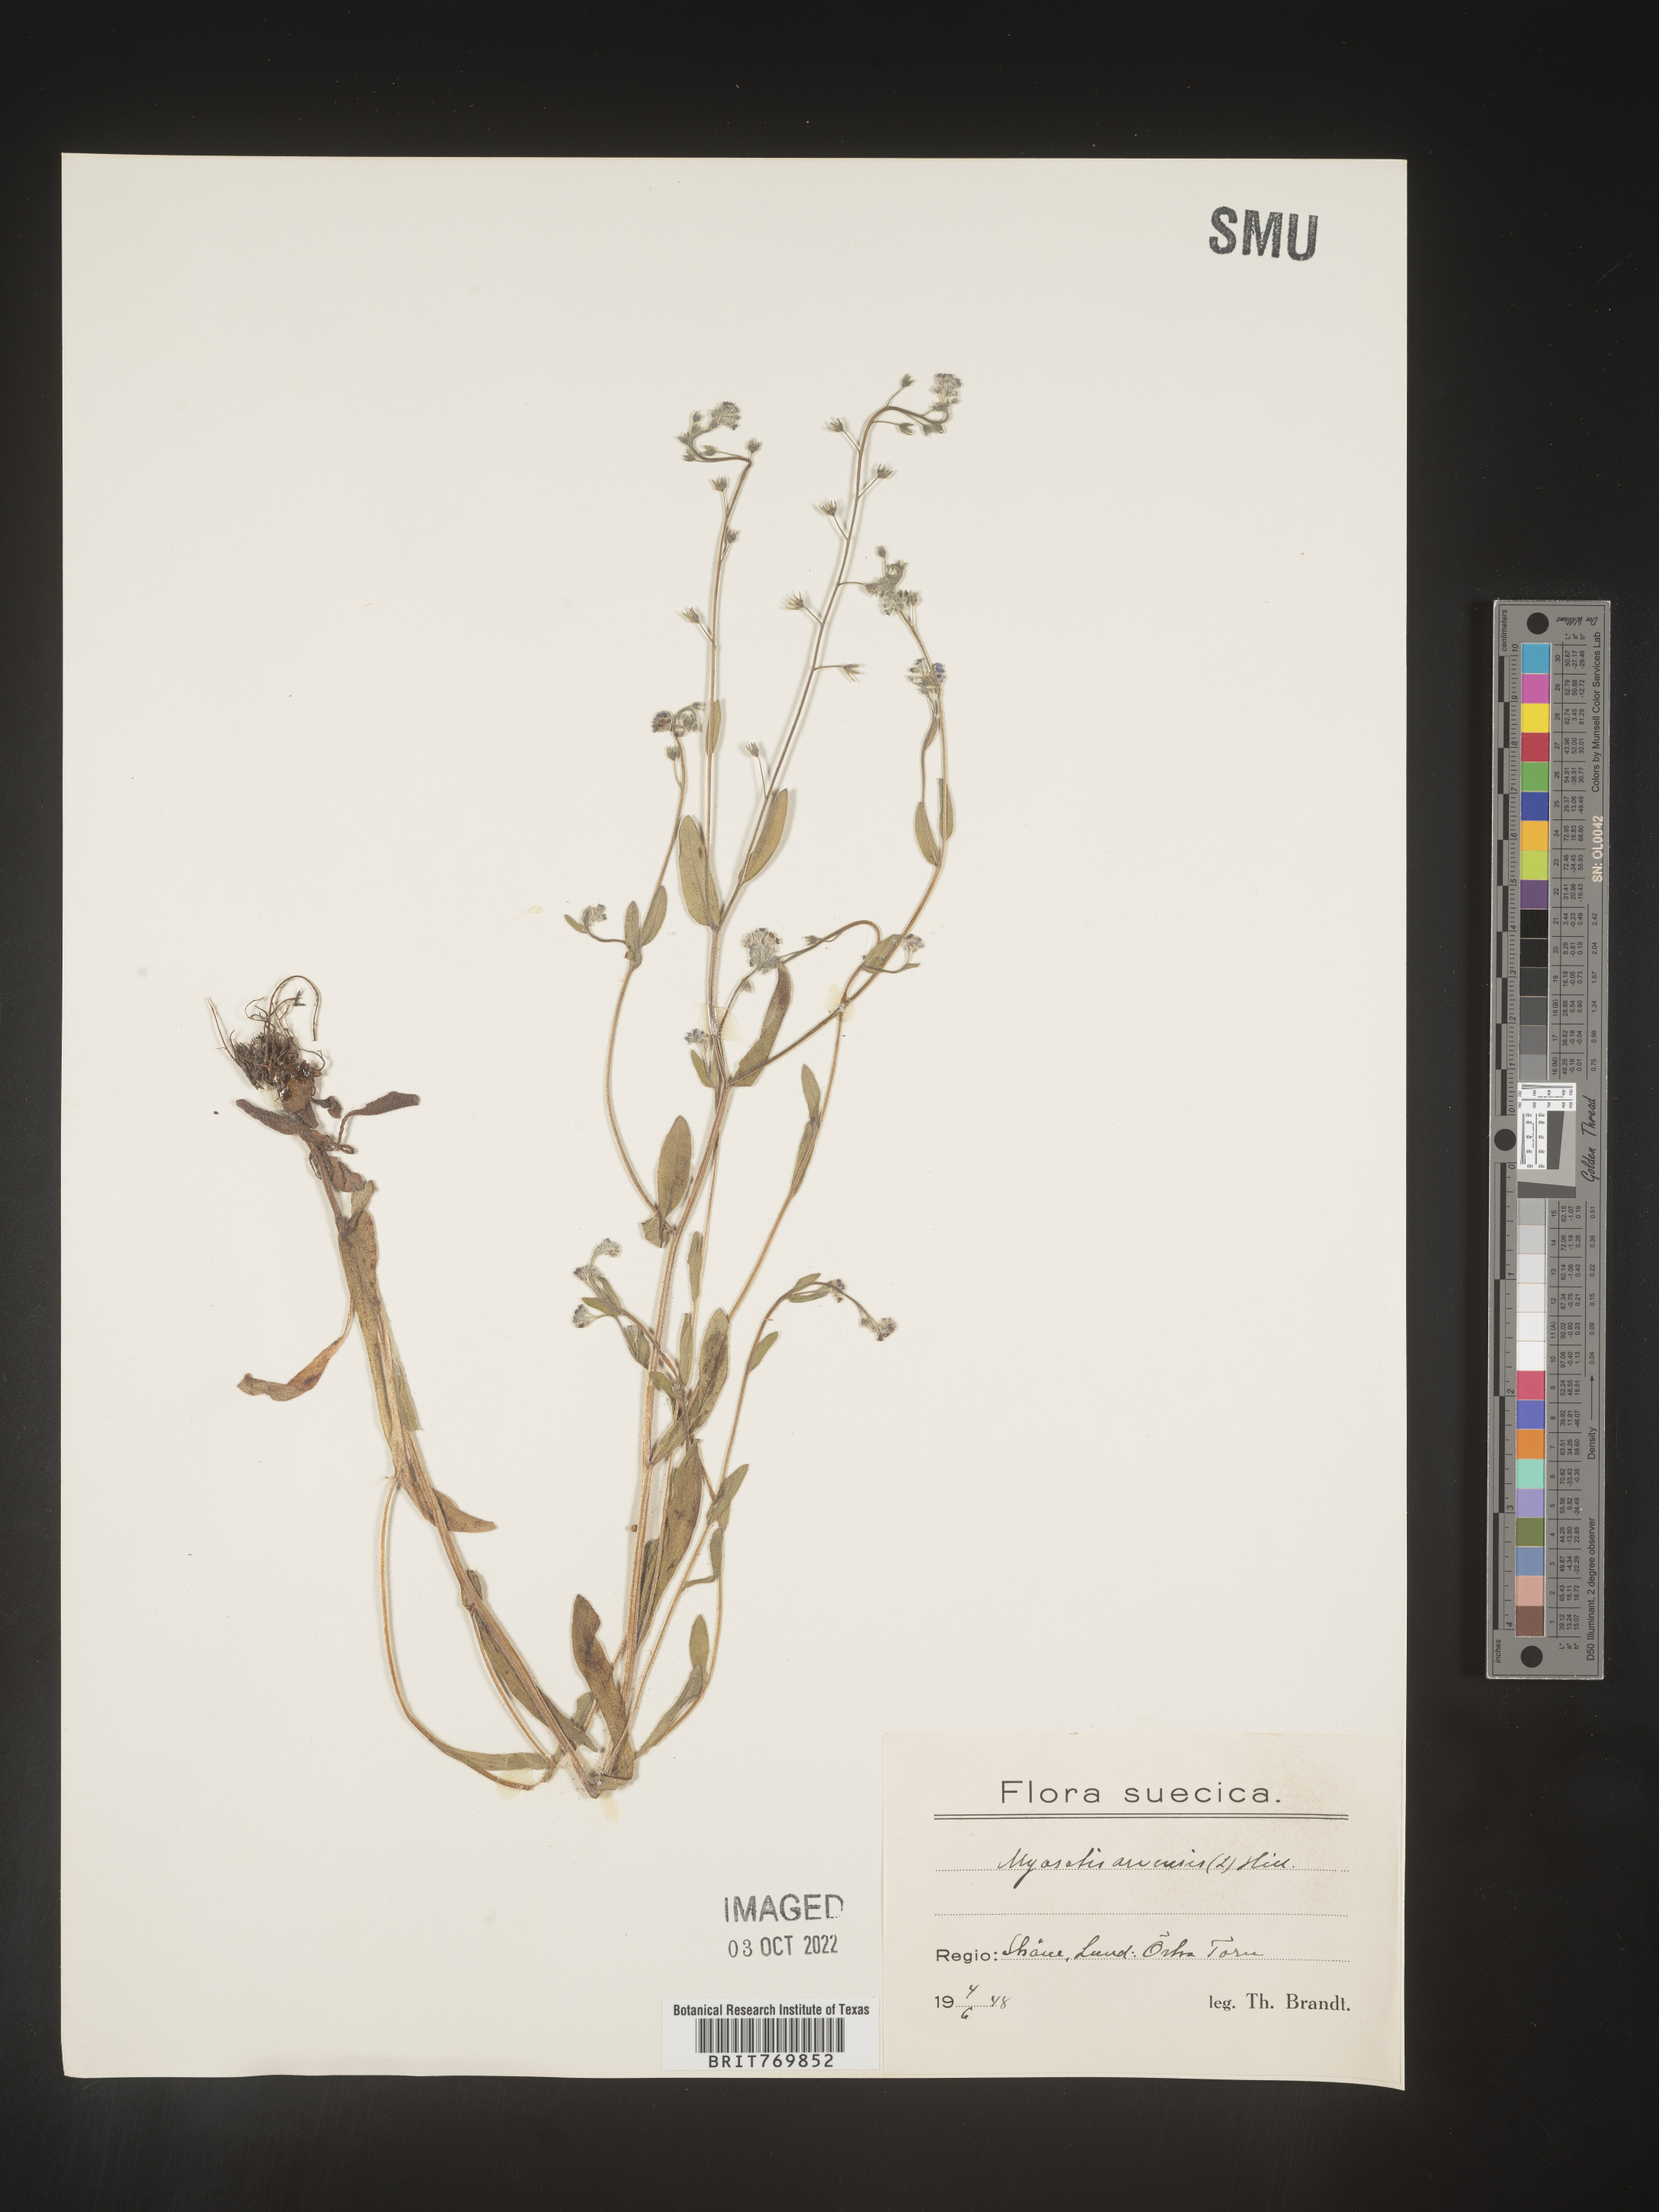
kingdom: Plantae
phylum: Tracheophyta
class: Magnoliopsida
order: Boraginales
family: Boraginaceae
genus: Myosotis
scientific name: Myosotis
